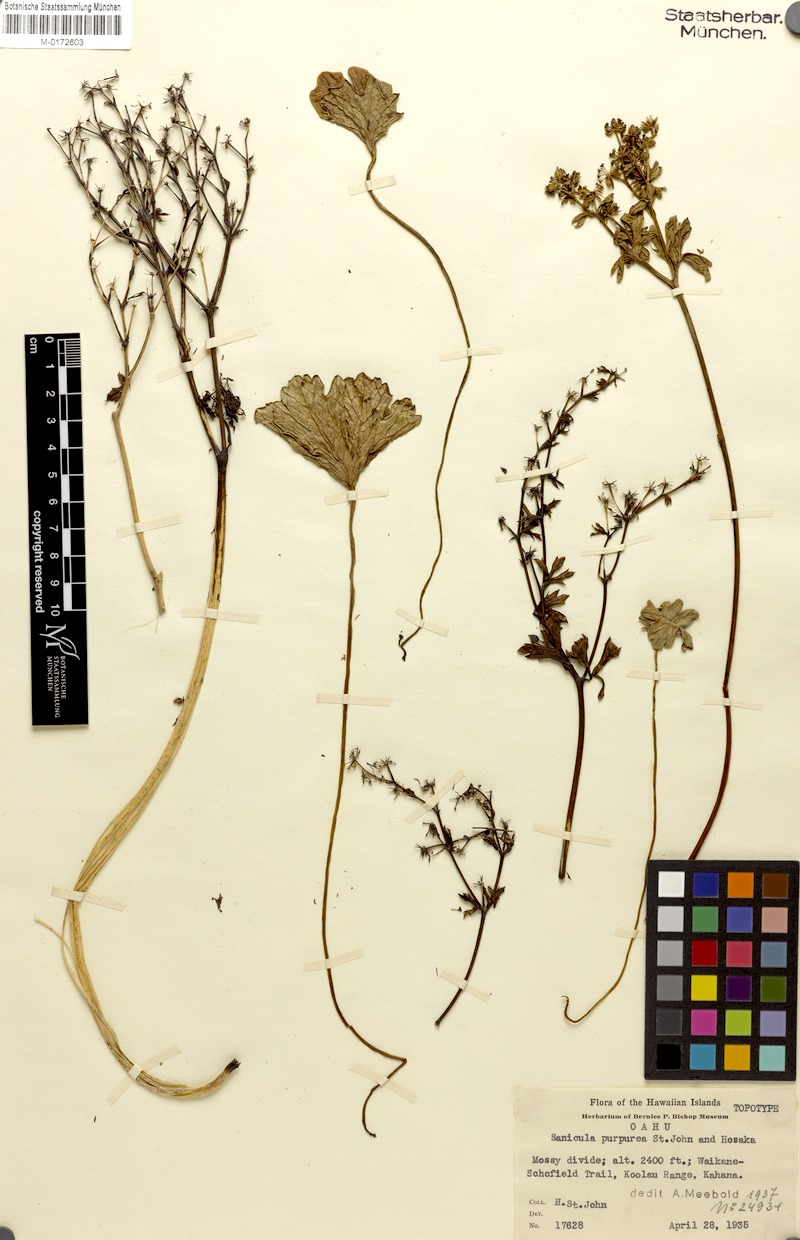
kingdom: Plantae
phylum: Tracheophyta
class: Magnoliopsida
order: Apiales
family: Apiaceae
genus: Sanicula
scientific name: Sanicula purpurea
